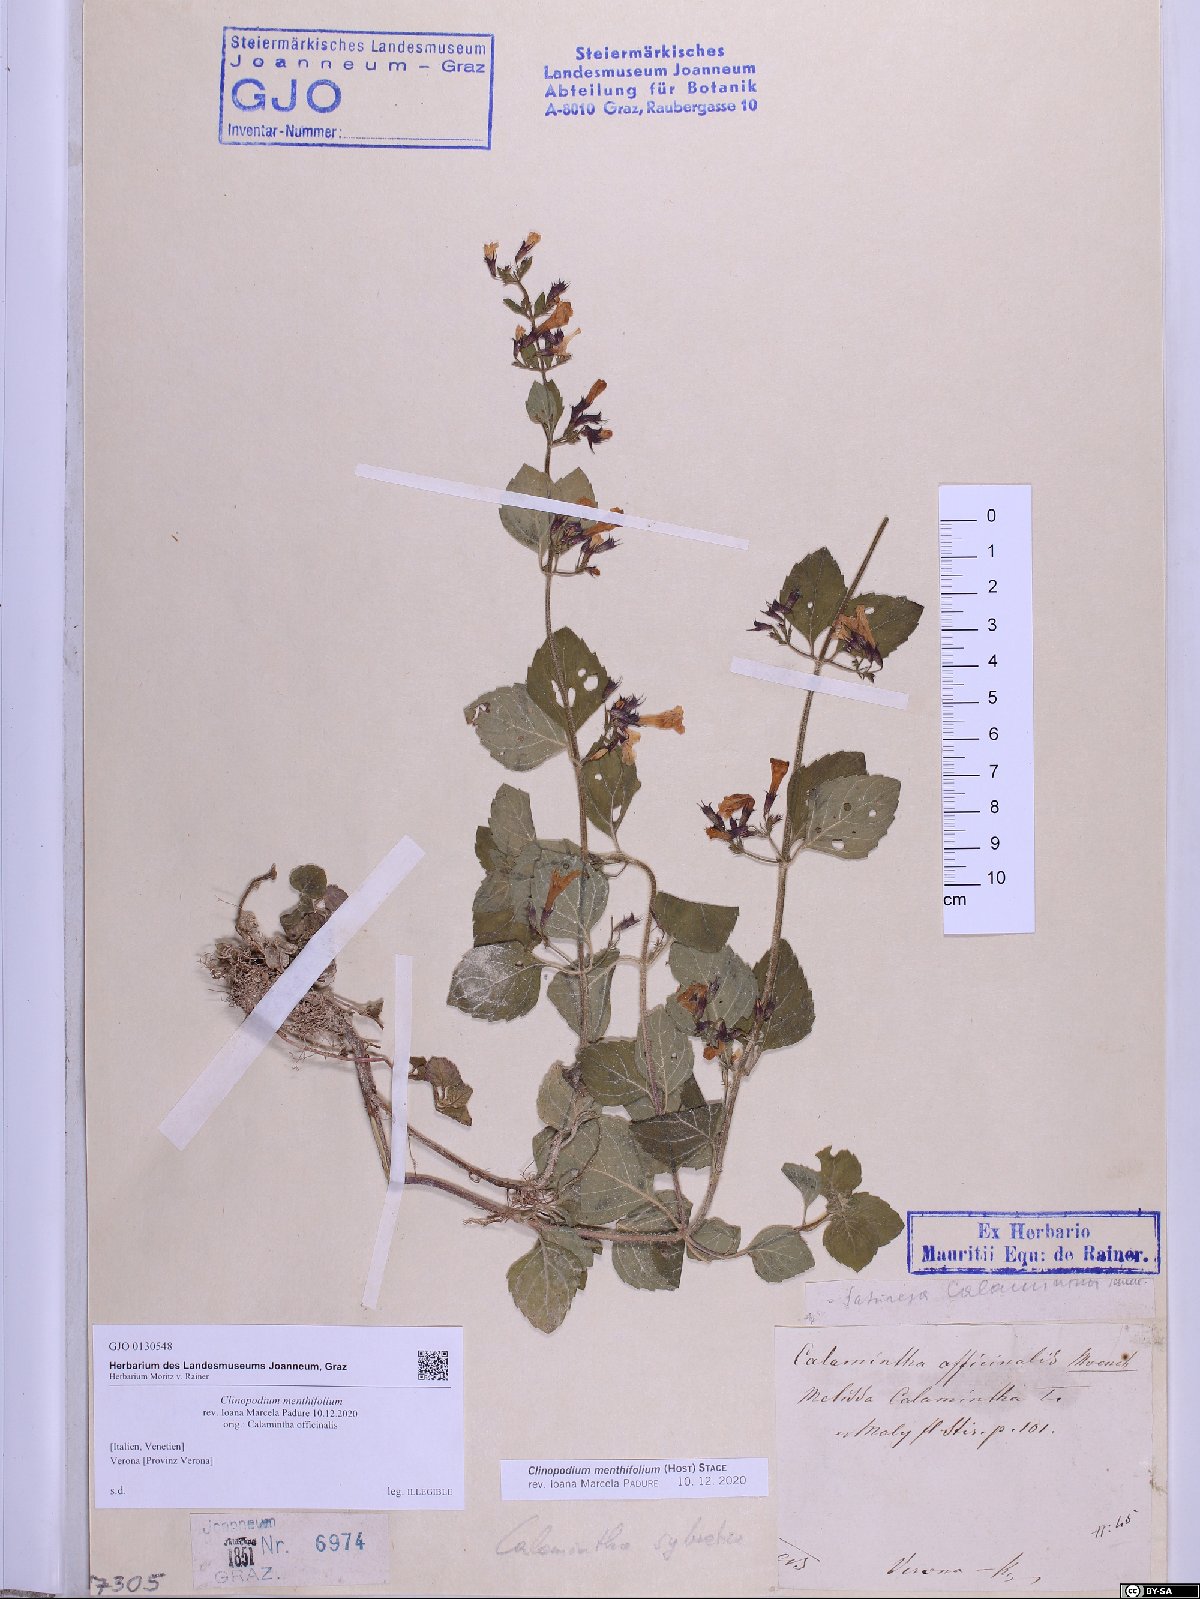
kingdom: Plantae
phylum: Tracheophyta
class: Magnoliopsida
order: Lamiales
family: Lamiaceae
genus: Clinopodium
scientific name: Clinopodium menthifolium
